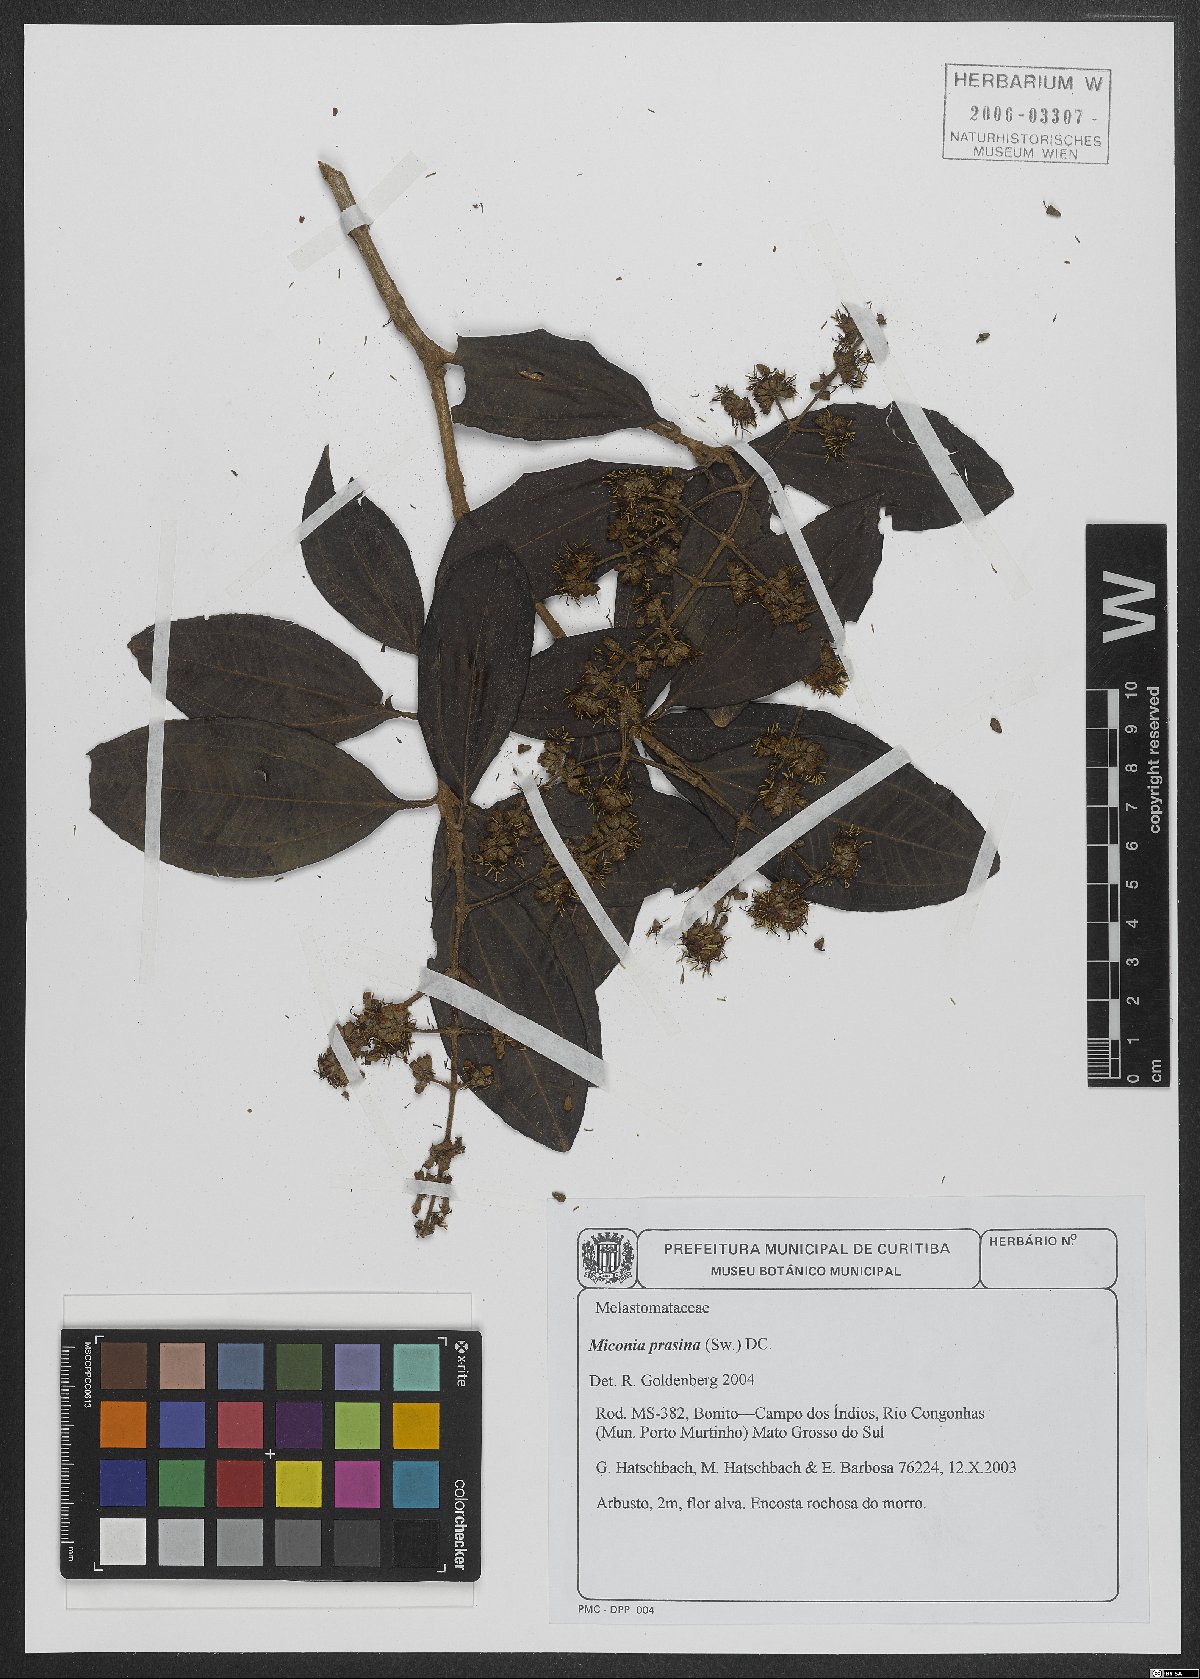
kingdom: Plantae
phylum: Tracheophyta
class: Magnoliopsida
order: Myrtales
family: Melastomataceae
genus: Miconia
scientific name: Miconia prasina
